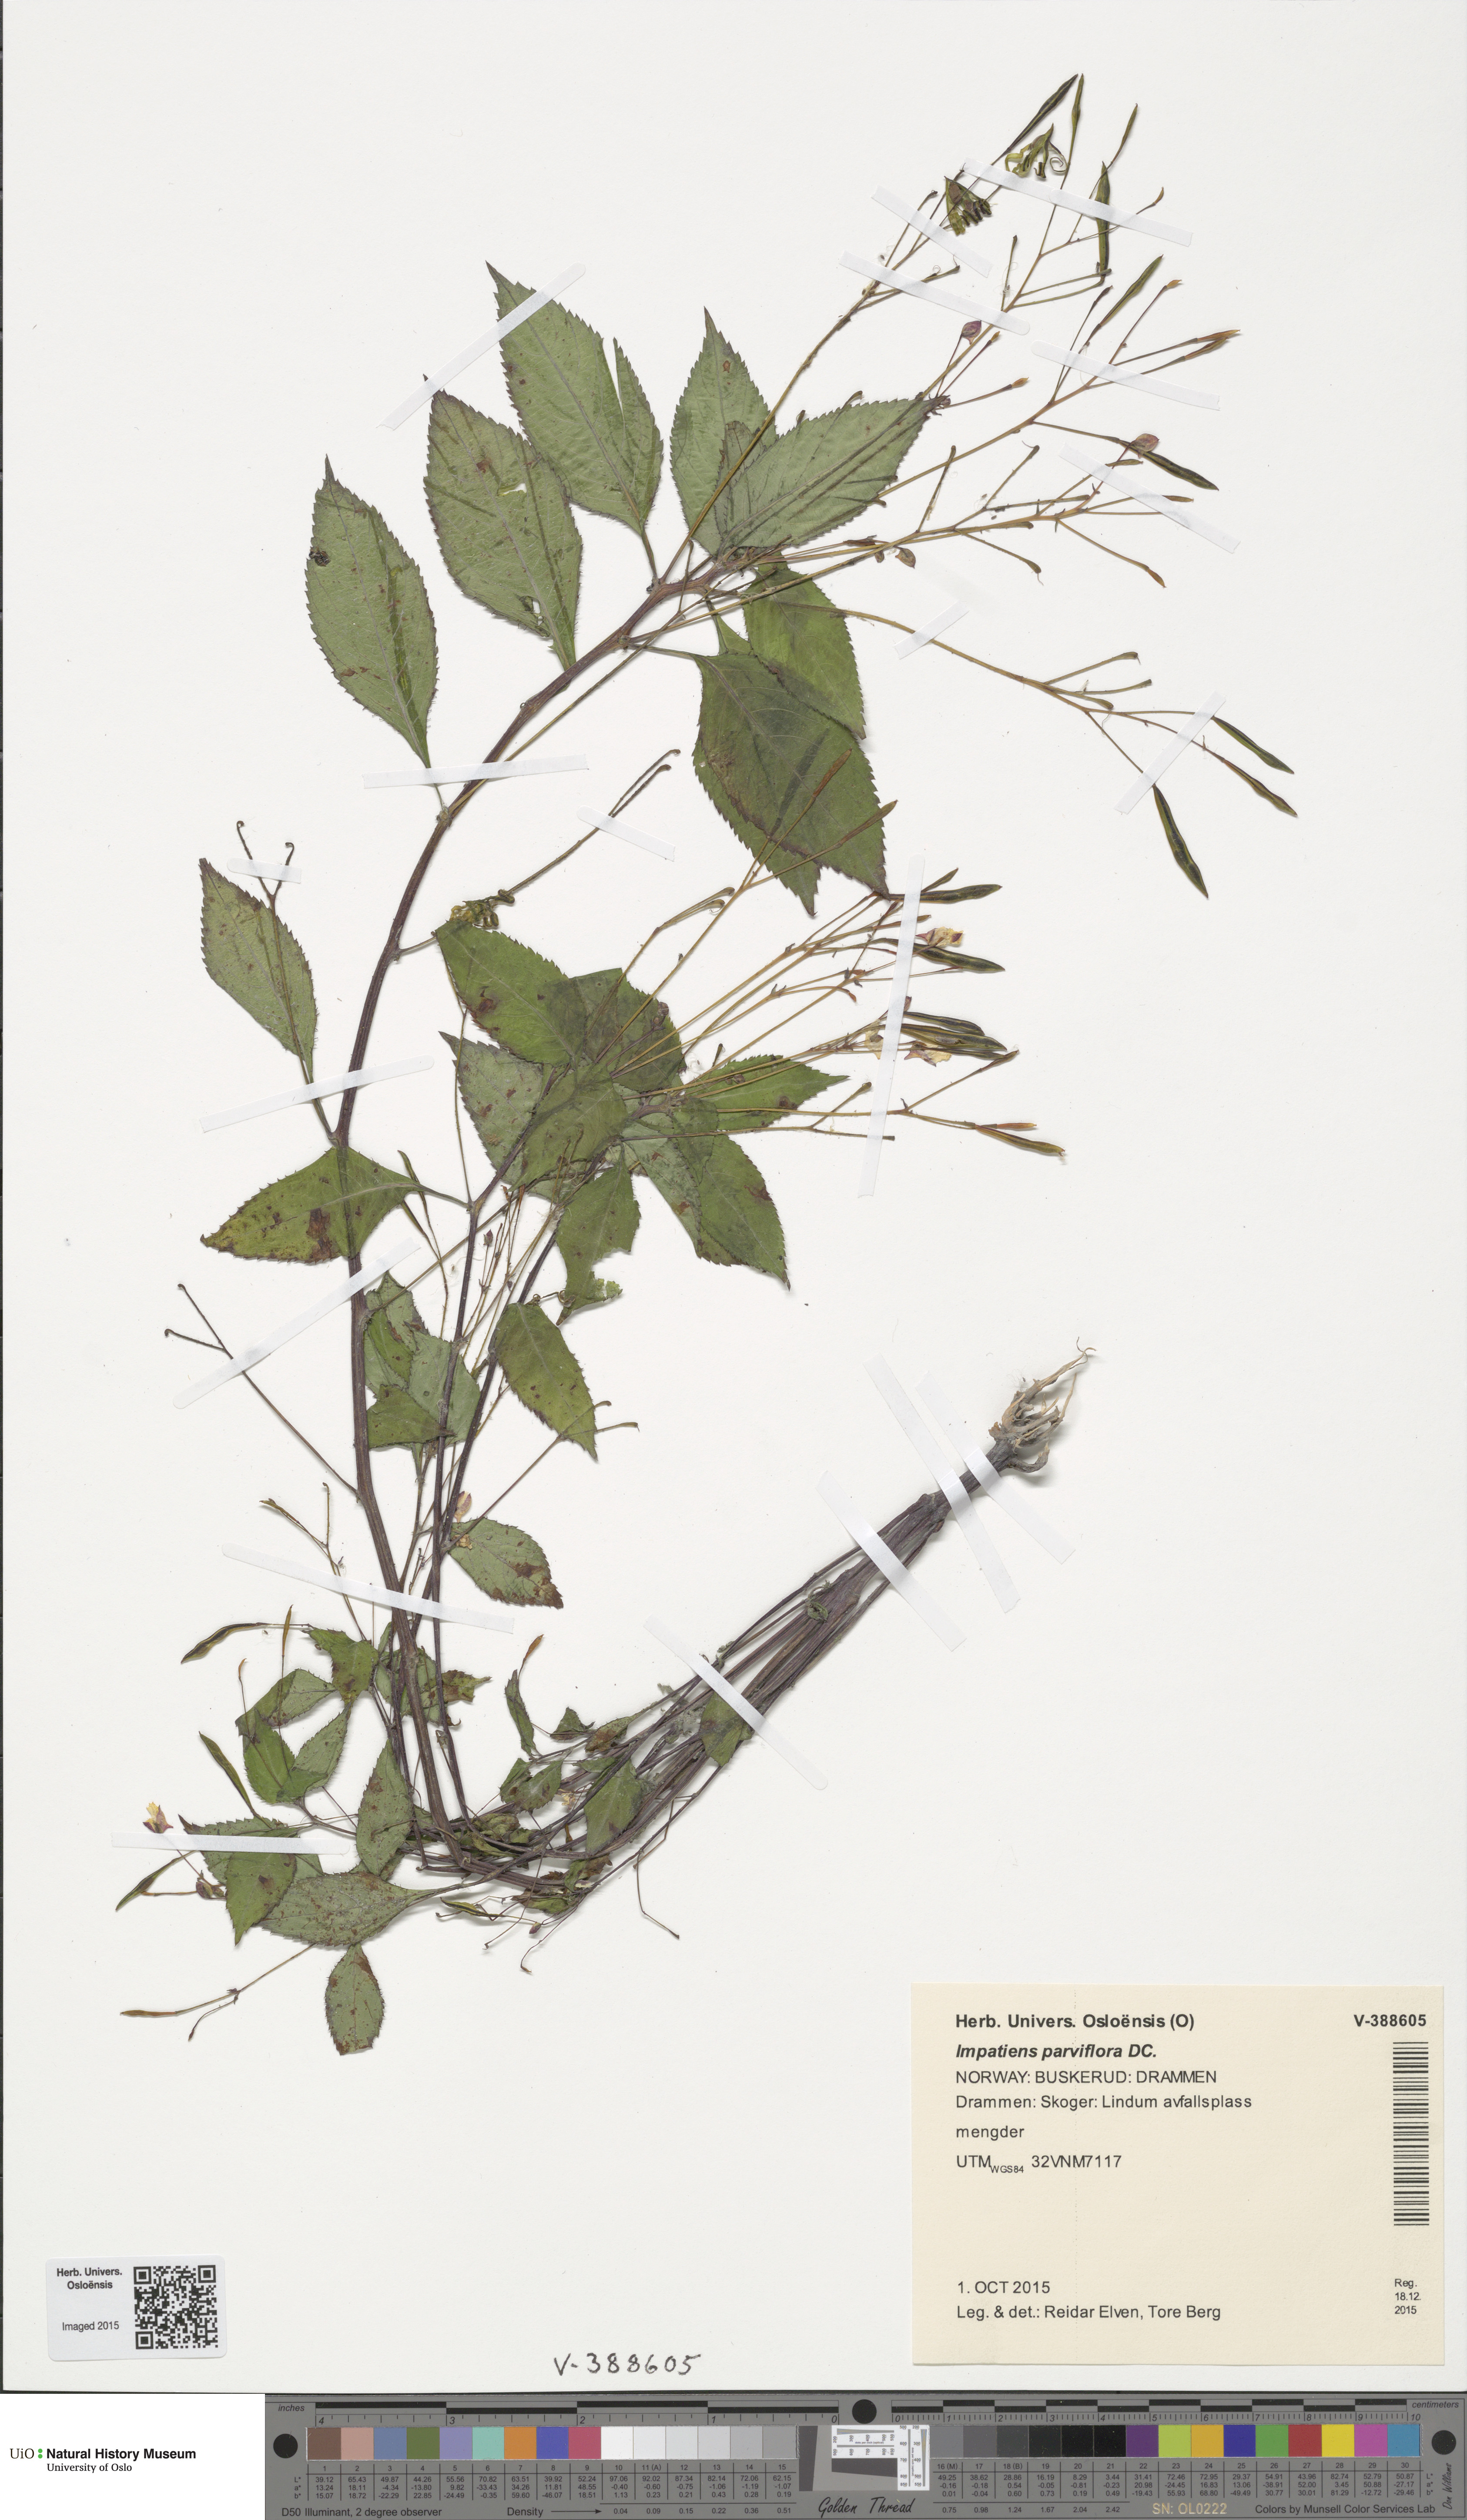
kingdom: Plantae
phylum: Tracheophyta
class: Magnoliopsida
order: Ericales
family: Balsaminaceae
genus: Impatiens
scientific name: Impatiens parviflora
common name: Small balsam
